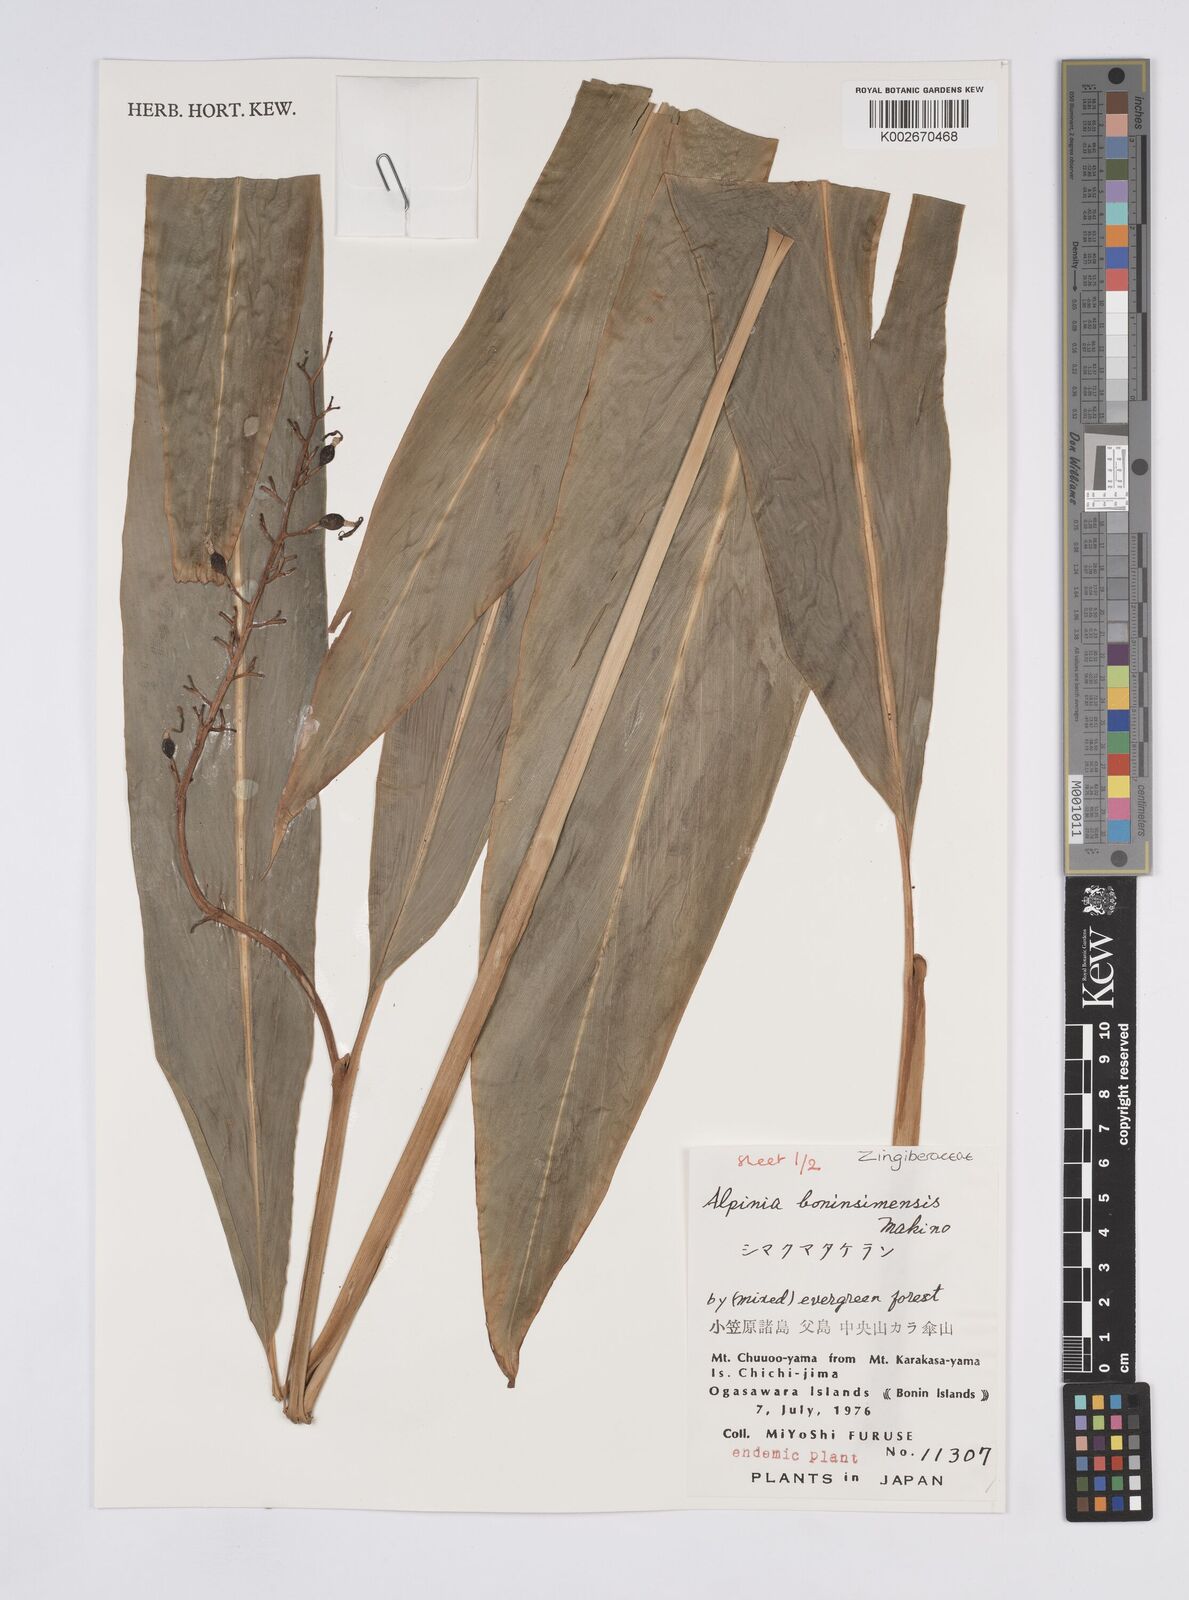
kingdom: Plantae
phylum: Tracheophyta
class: Liliopsida
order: Zingiberales
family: Zingiberaceae
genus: Alpinia
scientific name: Alpinia boninsimensis
